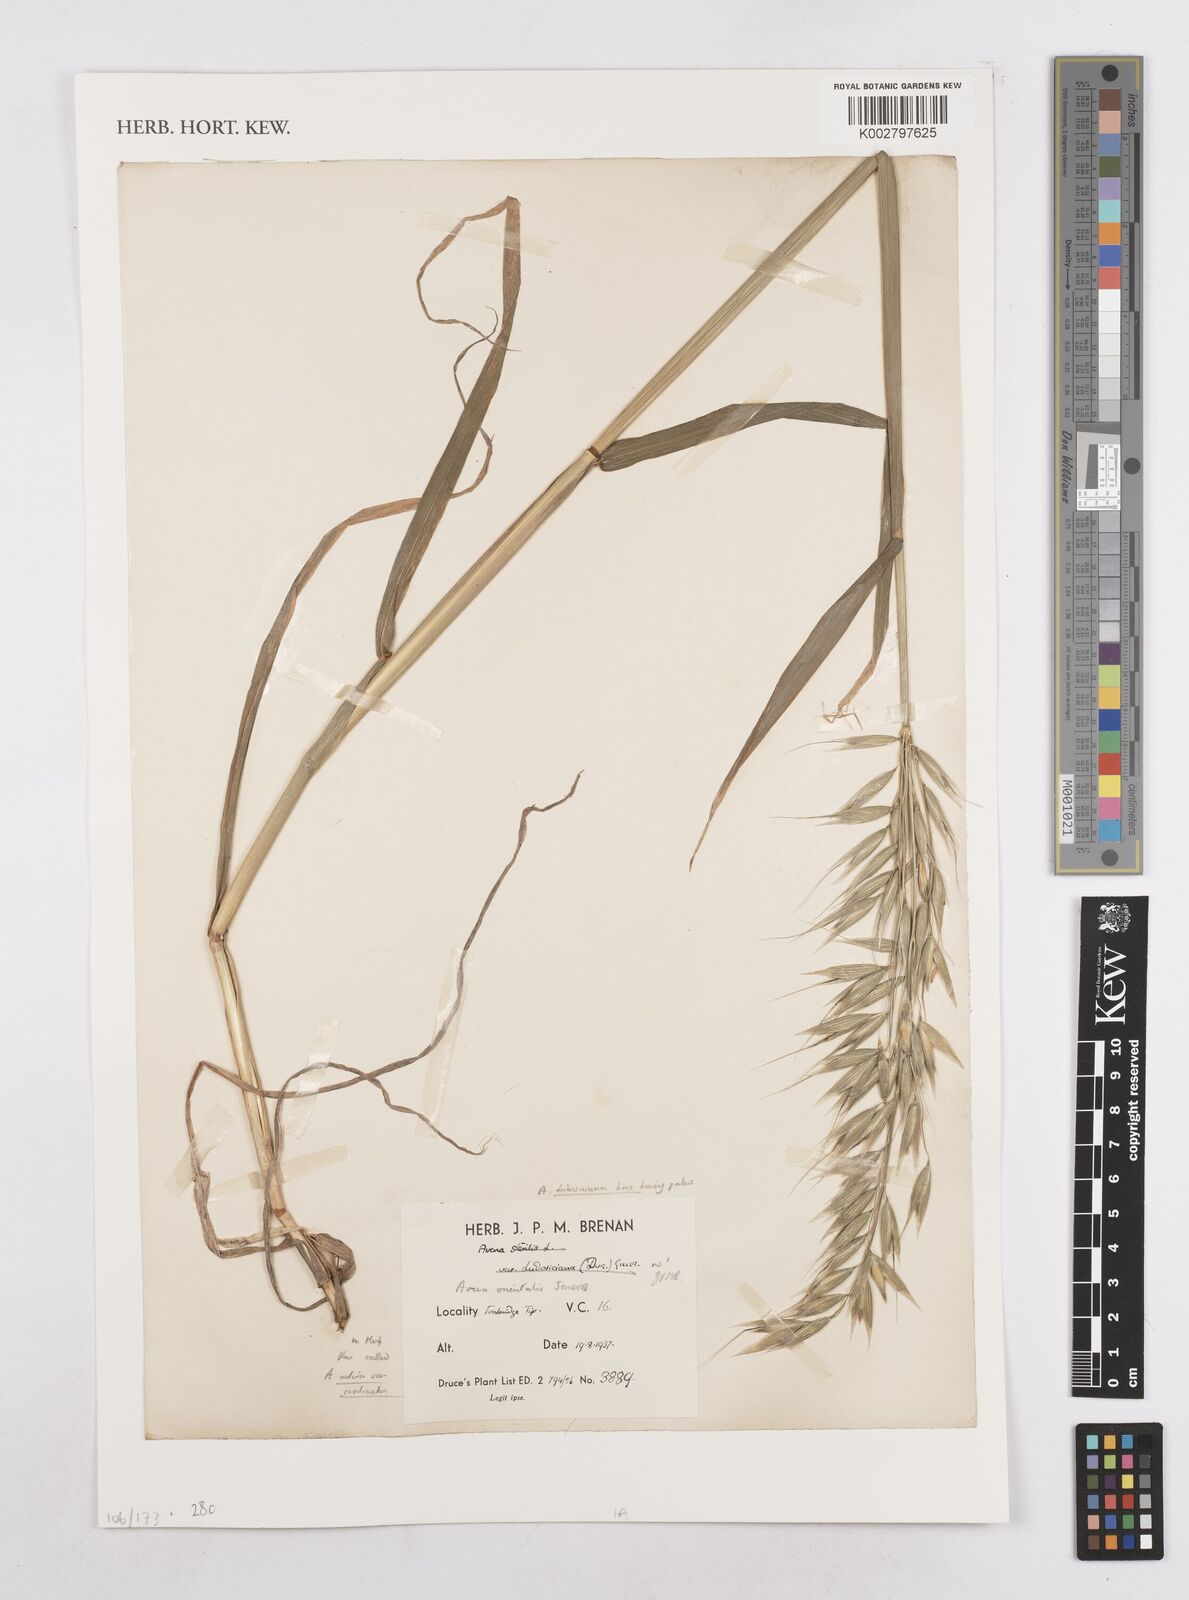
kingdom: Plantae
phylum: Tracheophyta
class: Liliopsida
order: Poales
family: Poaceae
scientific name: Poaceae
